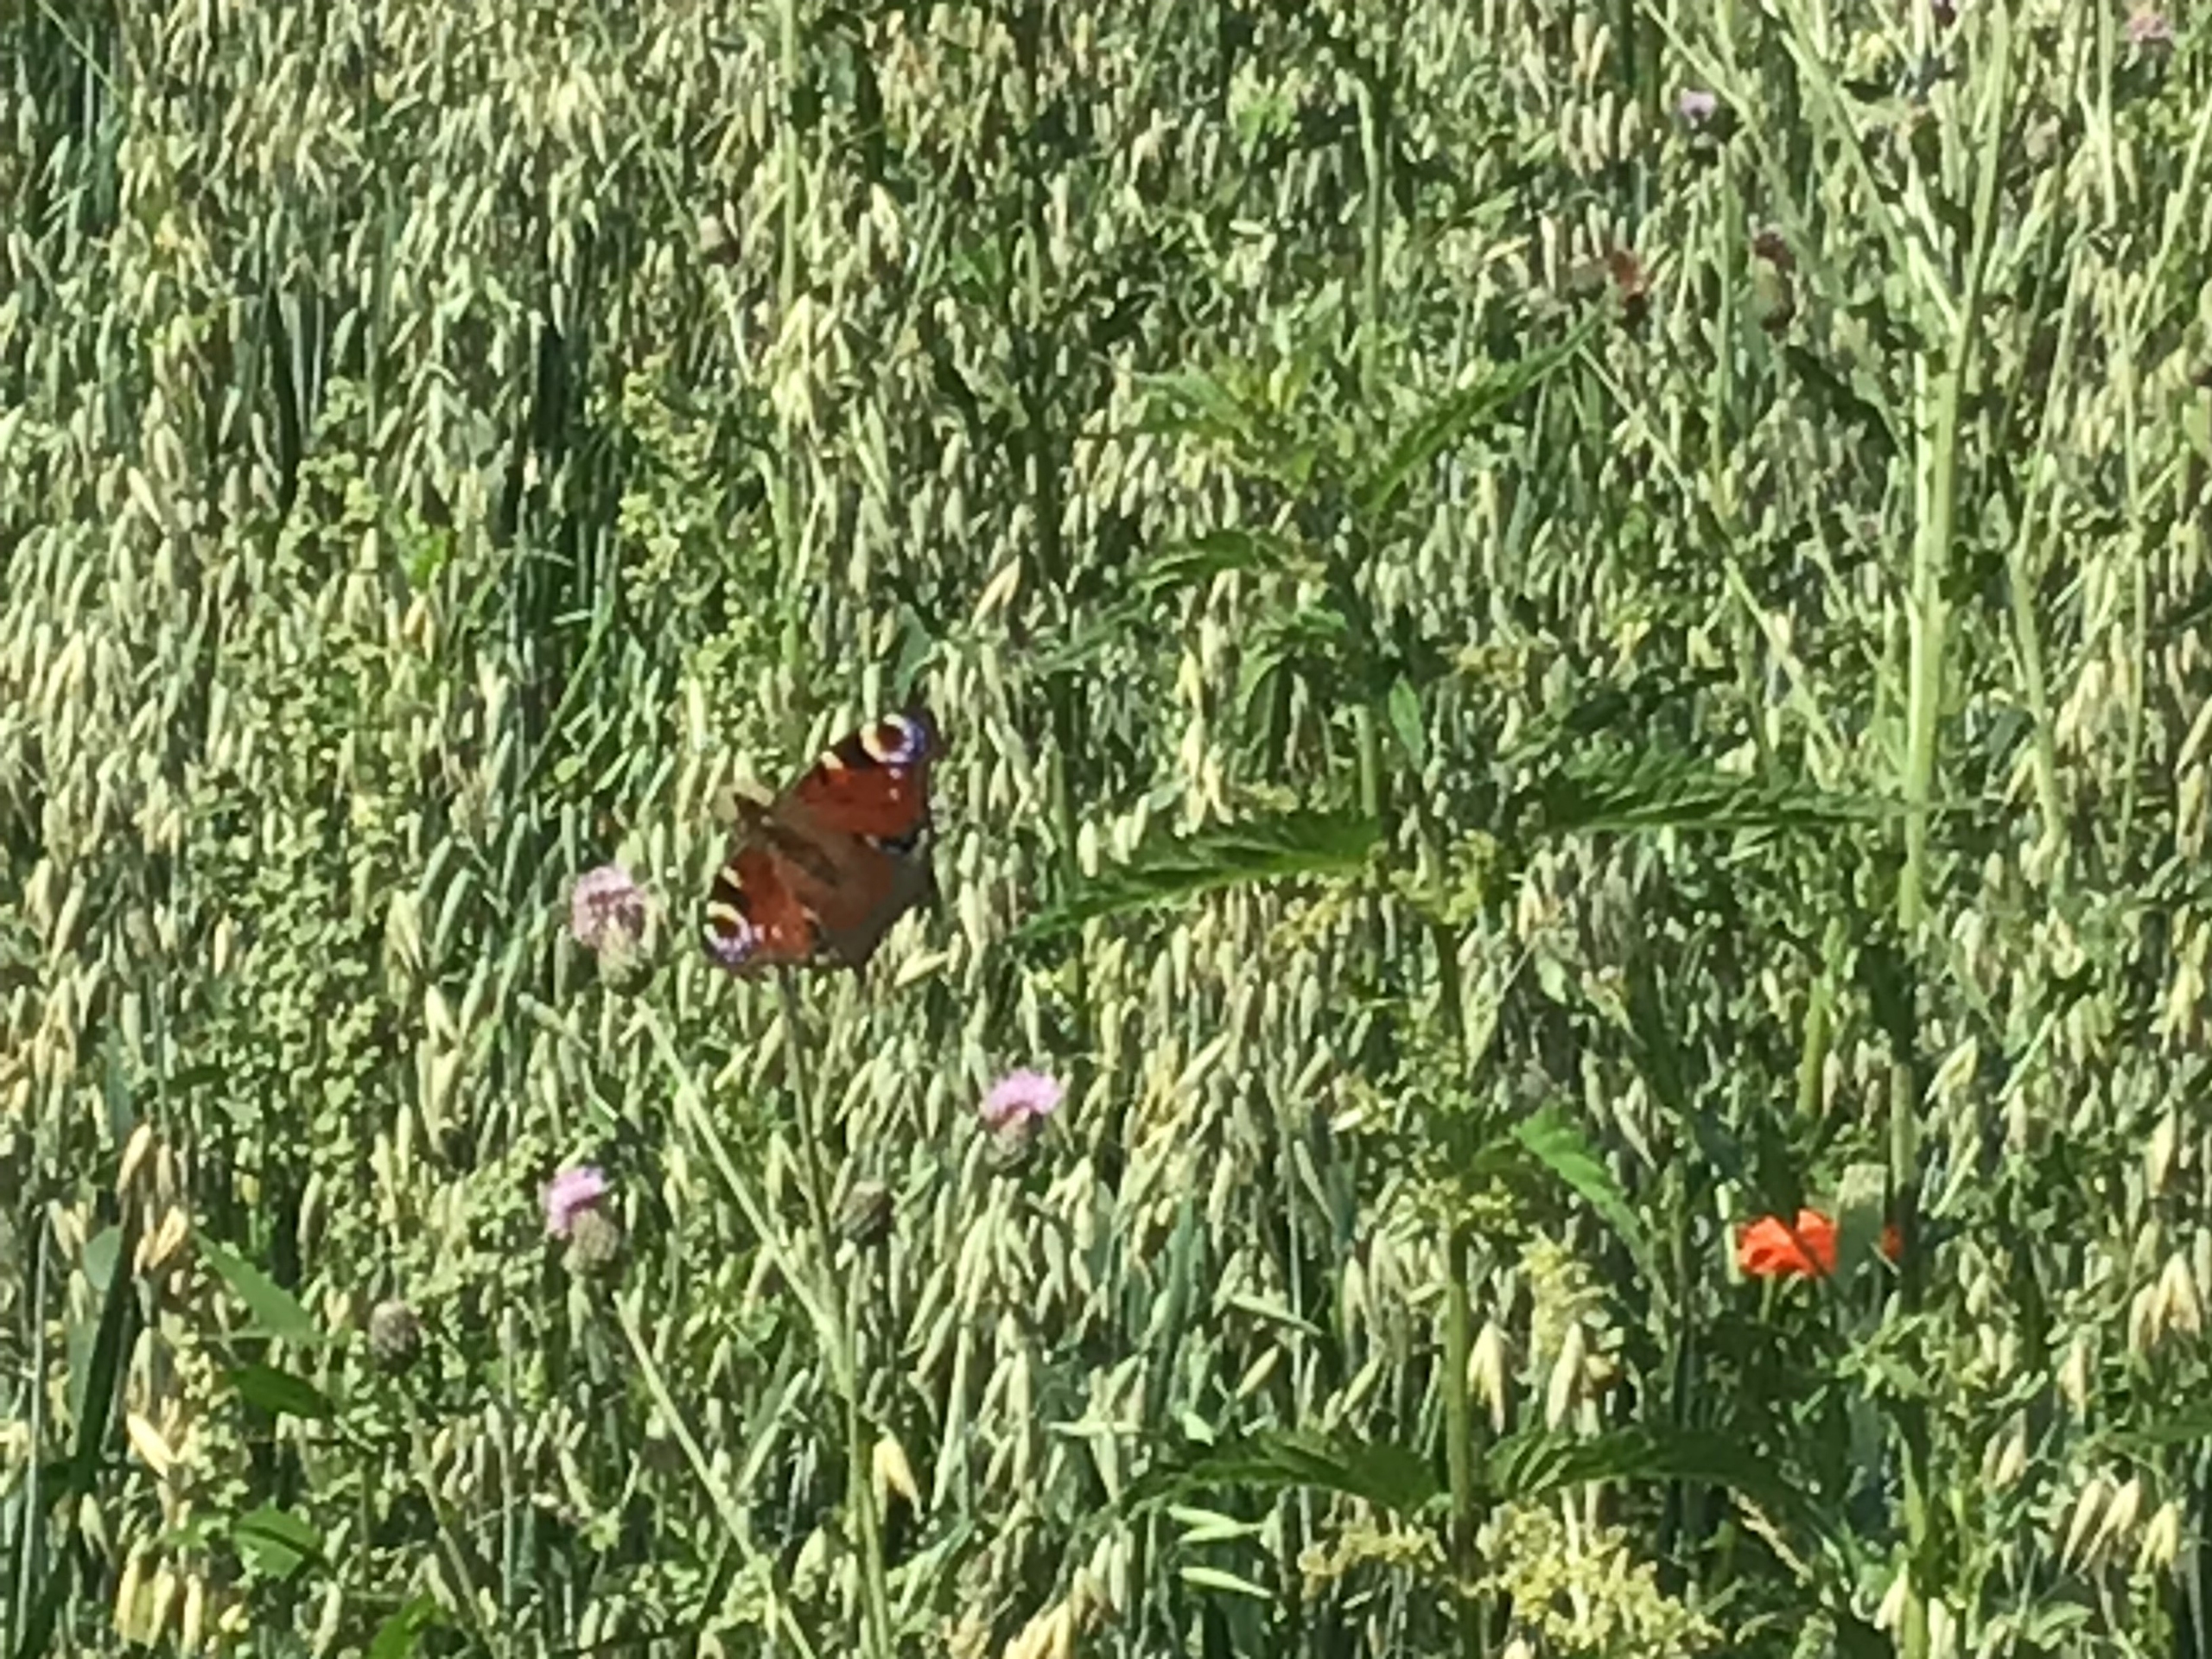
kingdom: Animalia
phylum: Arthropoda
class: Insecta
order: Lepidoptera
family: Nymphalidae
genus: Aglais
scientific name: Aglais io
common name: Dagpåfugleøje
